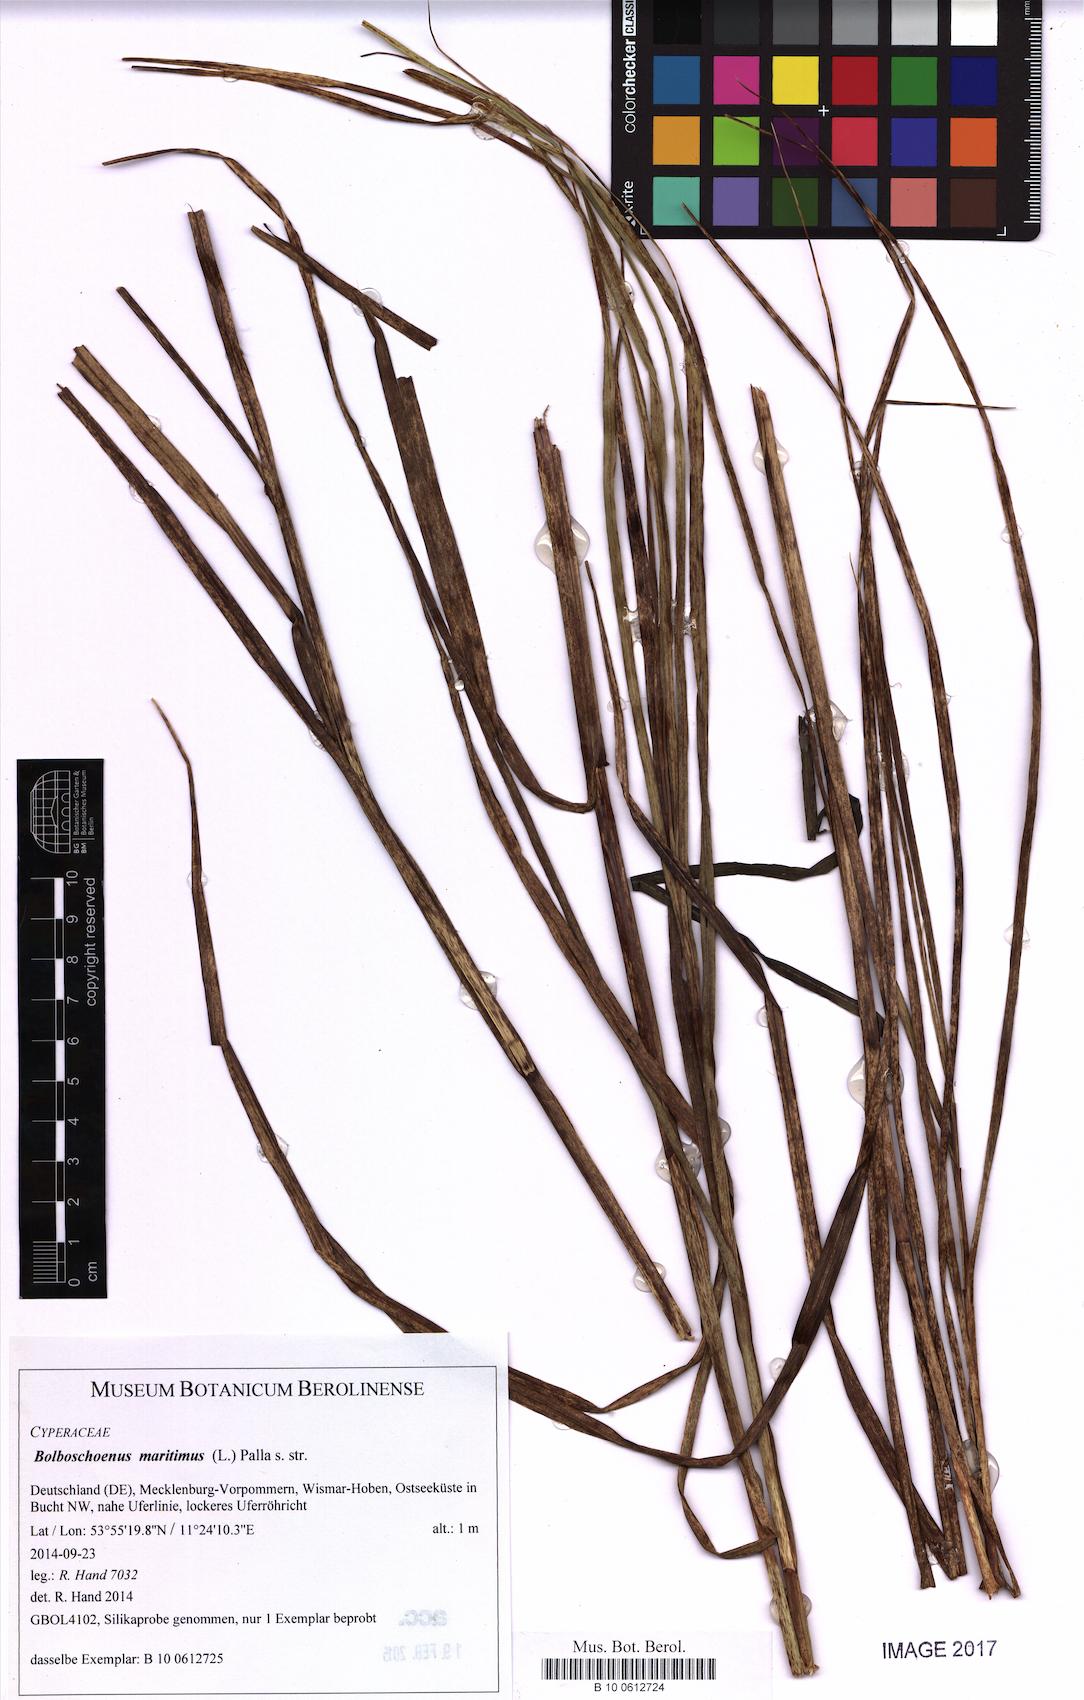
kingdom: Plantae
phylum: Tracheophyta
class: Liliopsida
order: Poales
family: Cyperaceae
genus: Bolboschoenus
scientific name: Bolboschoenus maritimus
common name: Sea club-rush
